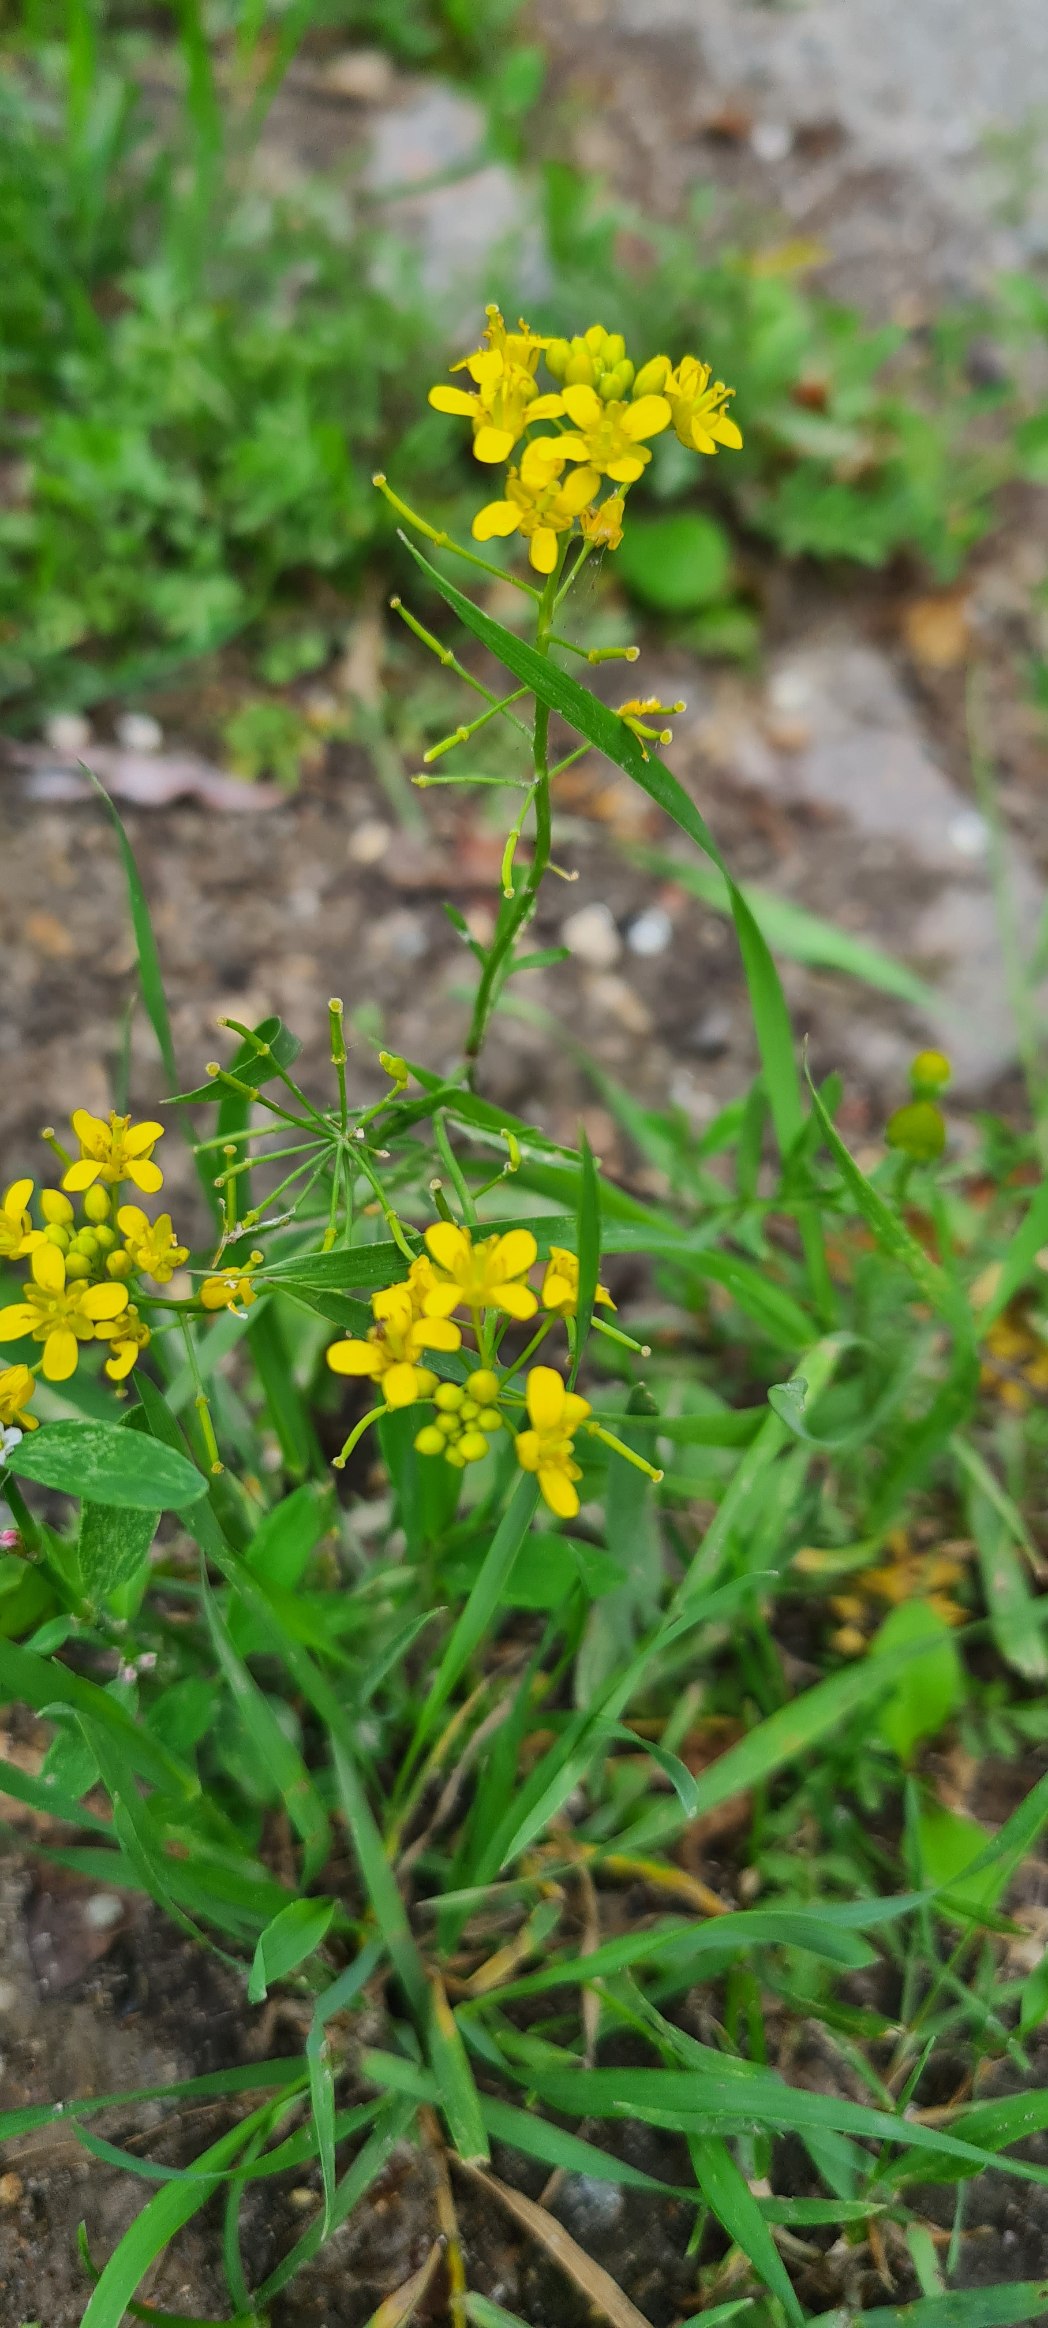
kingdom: Plantae
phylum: Tracheophyta
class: Magnoliopsida
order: Brassicales
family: Brassicaceae
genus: Rorippa
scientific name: Rorippa sylvestris
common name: Vej-guldkarse
